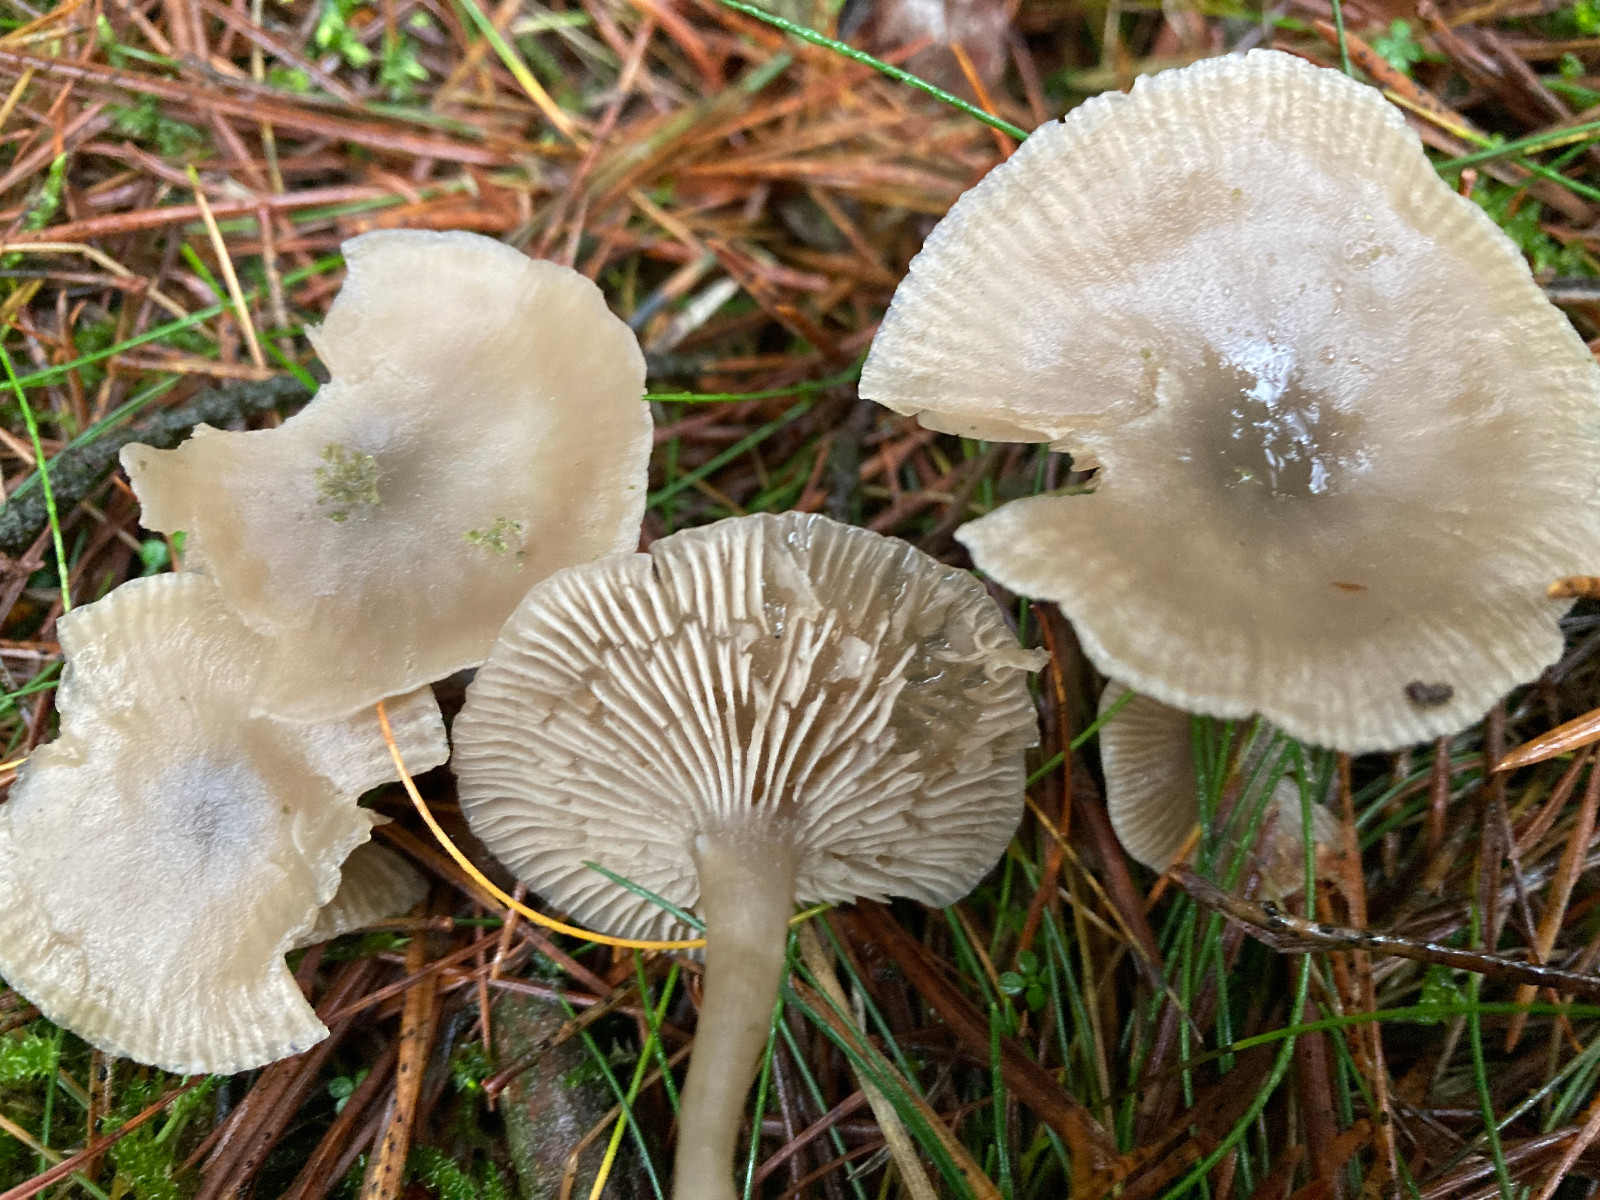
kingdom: Fungi
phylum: Basidiomycota
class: Agaricomycetes
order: Agaricales
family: Tricholomataceae
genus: Clitocybe
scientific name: Clitocybe
